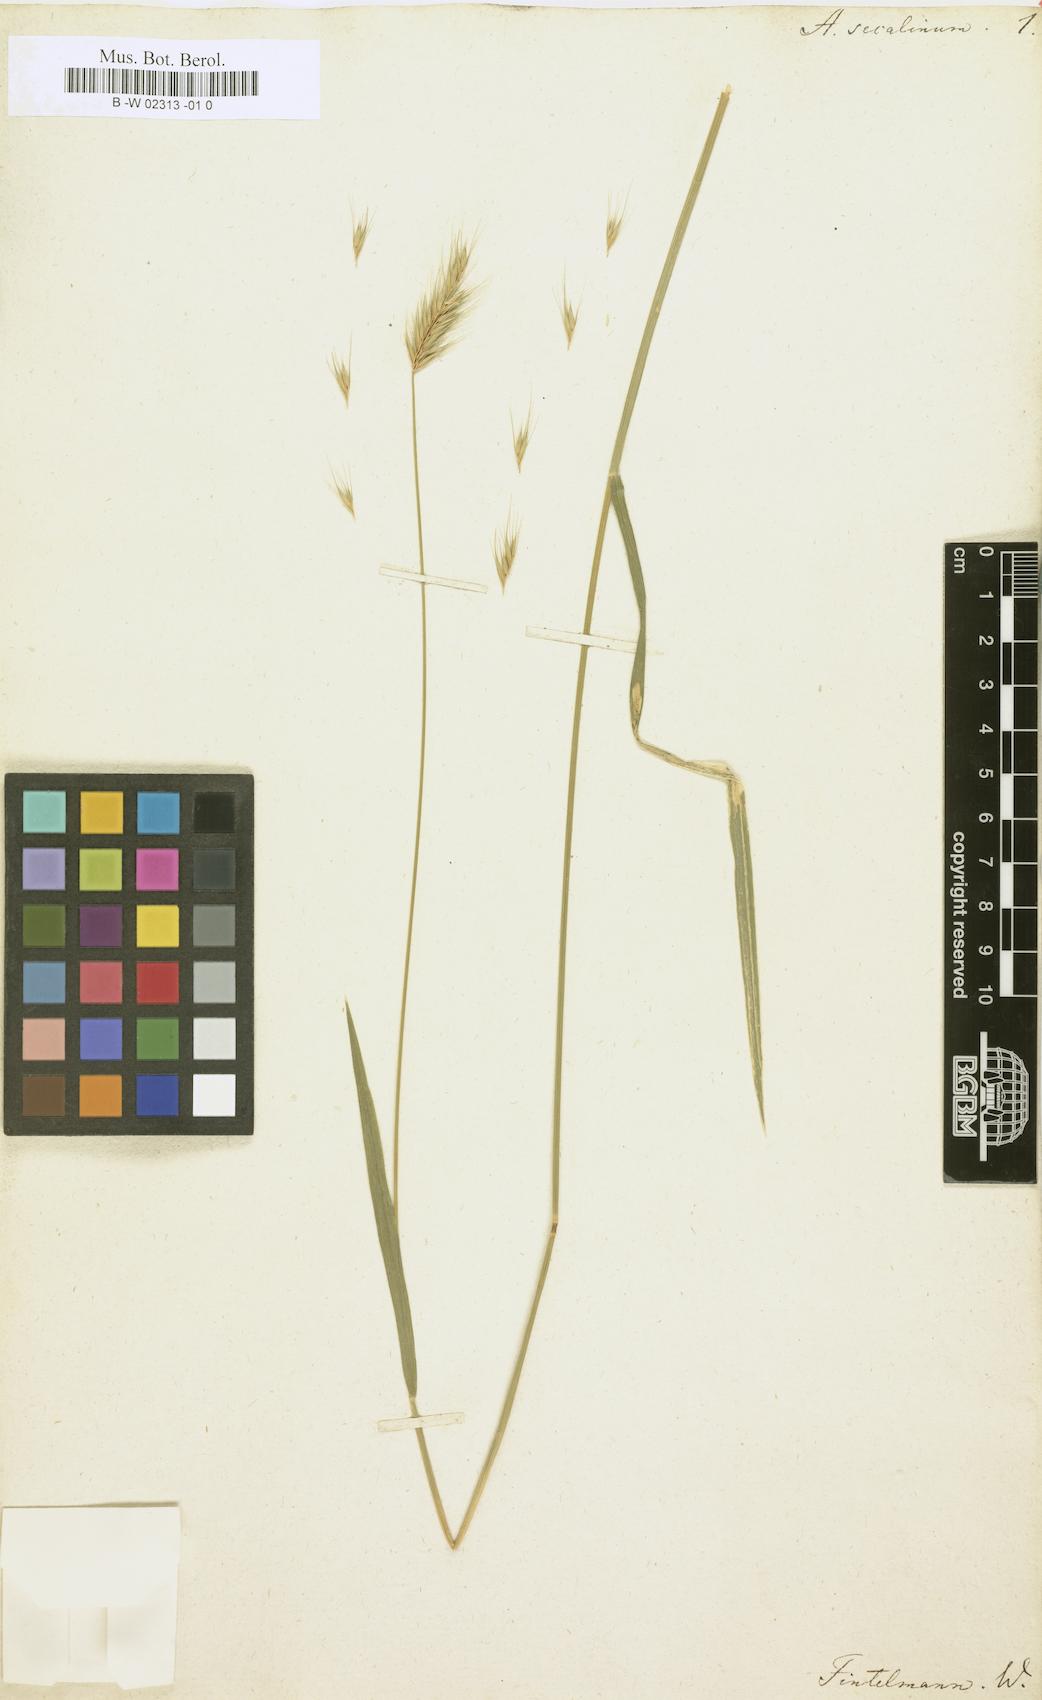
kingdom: Plantae
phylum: Tracheophyta
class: Liliopsida
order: Poales
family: Poaceae
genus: Hordeum
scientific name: Hordeum secalinum
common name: Meadow barley
